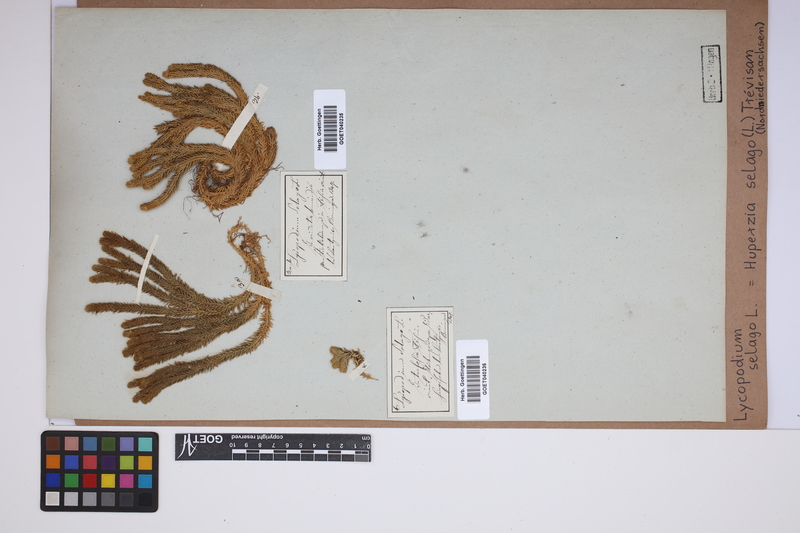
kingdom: Plantae
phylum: Tracheophyta
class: Lycopodiopsida
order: Lycopodiales
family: Lycopodiaceae
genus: Huperzia
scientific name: Huperzia selago
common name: Northern firmoss
